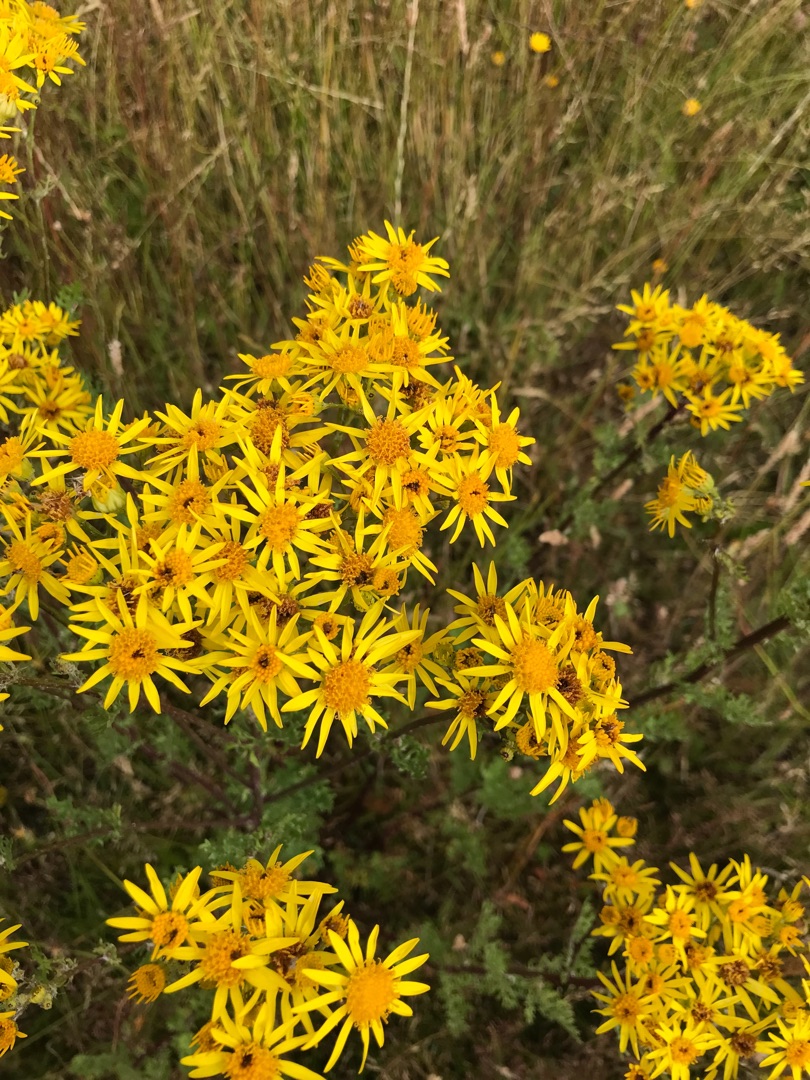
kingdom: Plantae
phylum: Tracheophyta
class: Magnoliopsida
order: Asterales
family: Asteraceae
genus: Jacobaea
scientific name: Jacobaea vulgaris
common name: Eng-brandbæger
